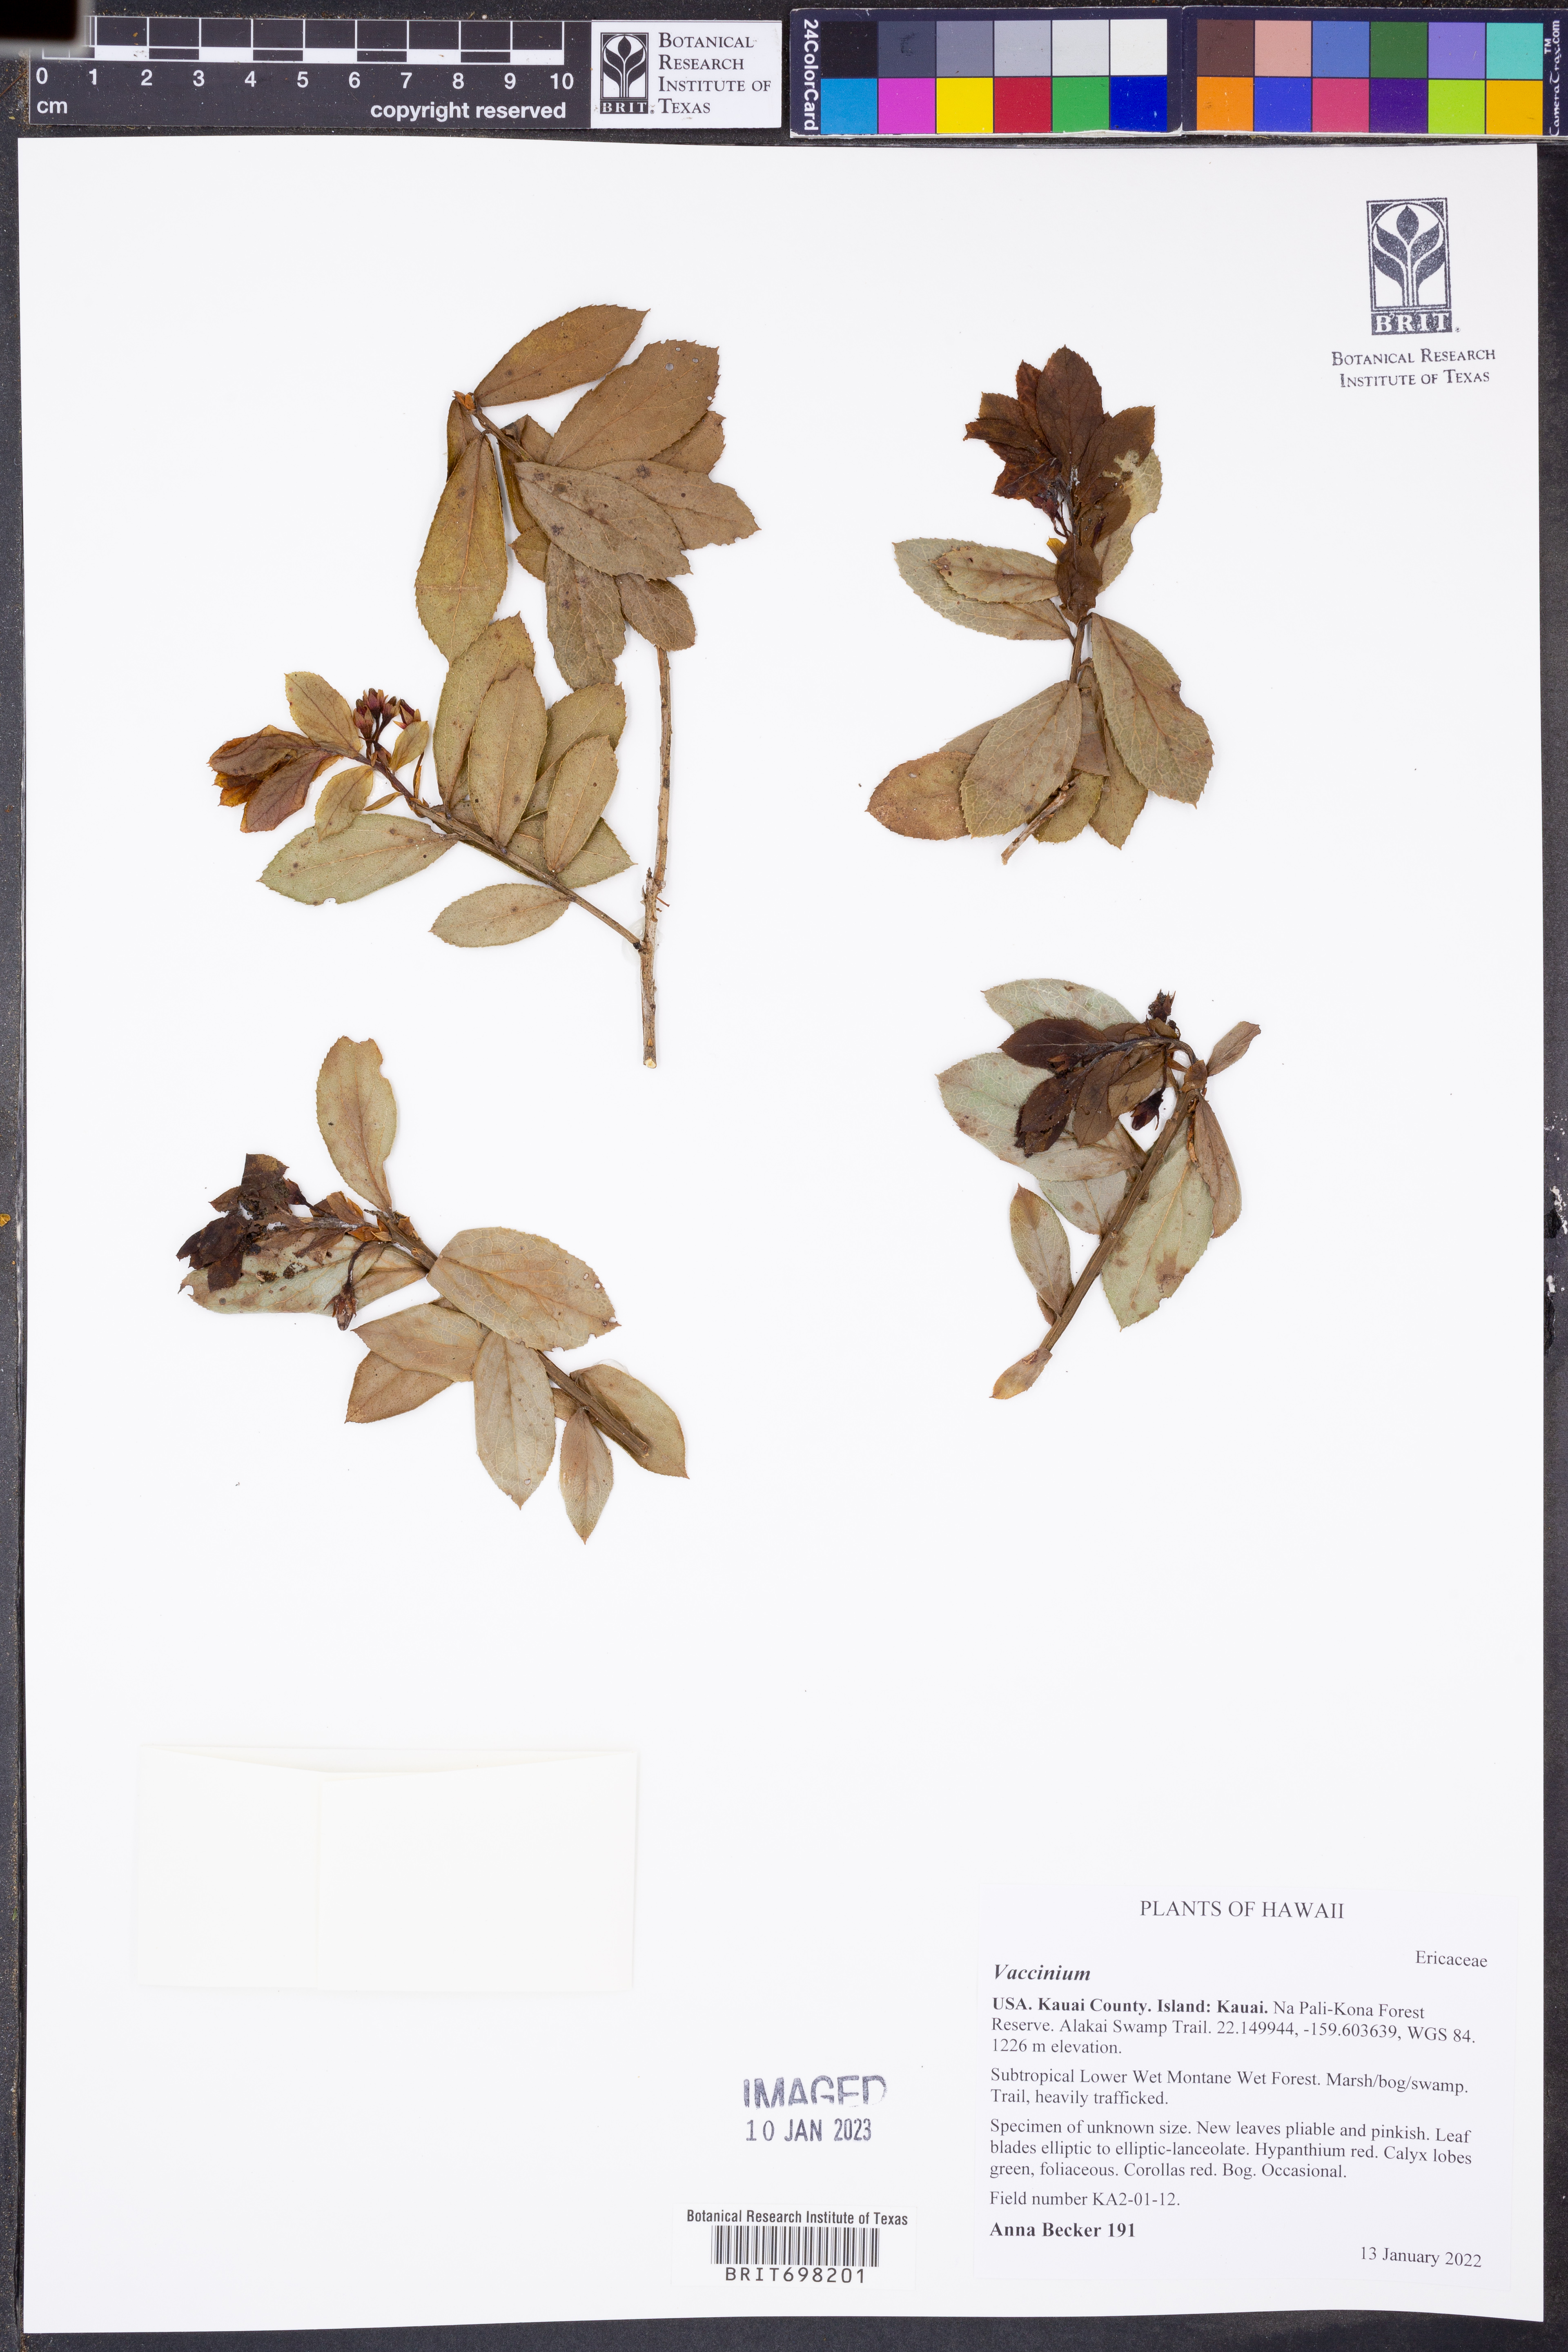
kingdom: Plantae
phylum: Tracheophyta
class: Magnoliopsida
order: Ericales
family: Ericaceae
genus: Vaccinium
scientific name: Vaccinium
